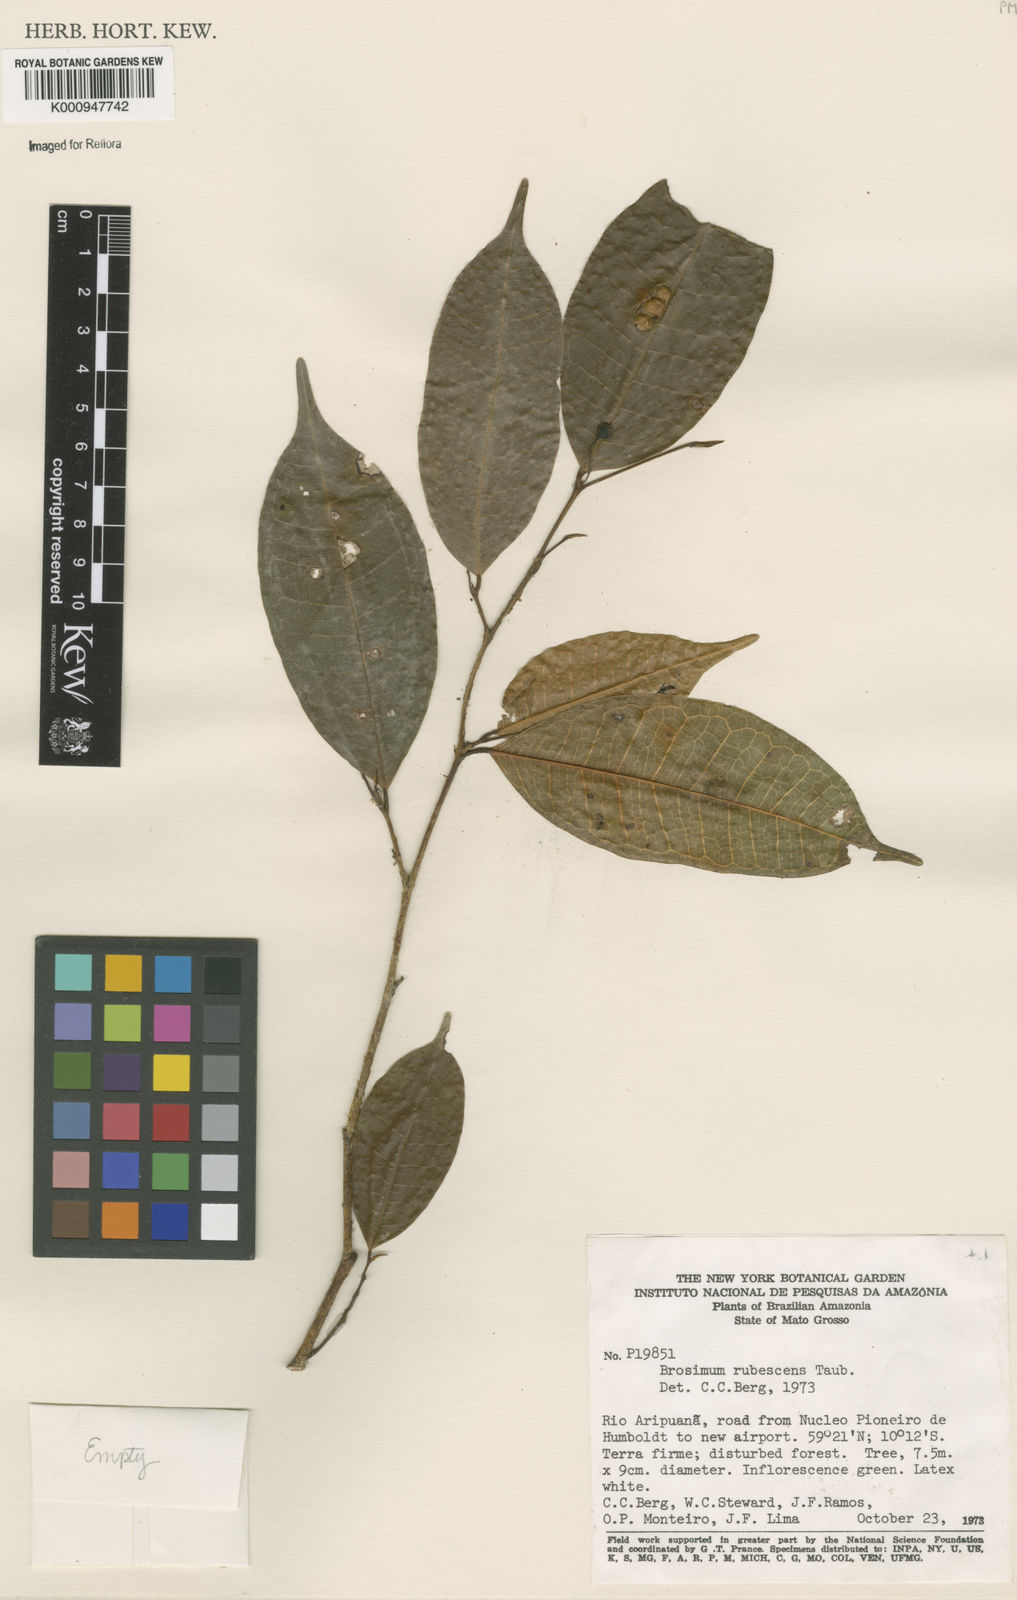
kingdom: Plantae
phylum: Tracheophyta
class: Magnoliopsida
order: Rosales
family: Moraceae
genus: Brosimum
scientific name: Brosimum rubescens
